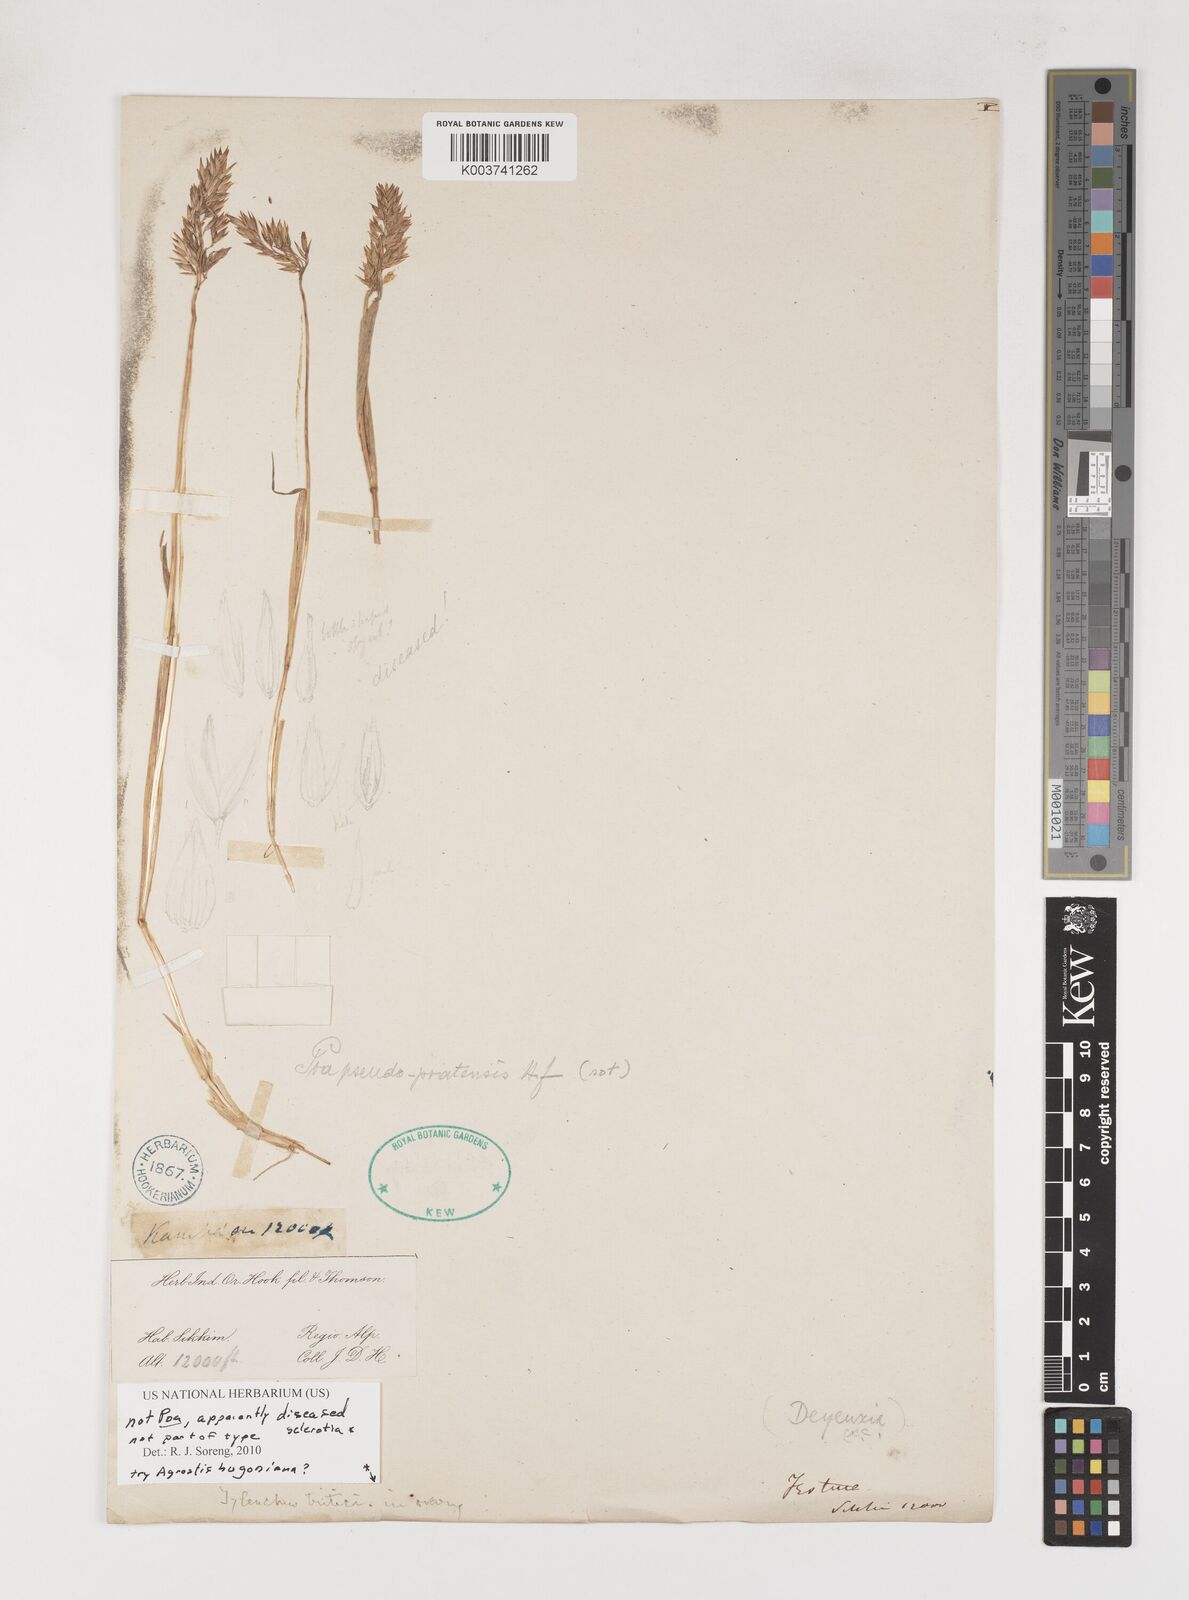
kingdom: Plantae
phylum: Tracheophyta
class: Liliopsida
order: Poales
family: Poaceae
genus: Poa
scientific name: Poa
